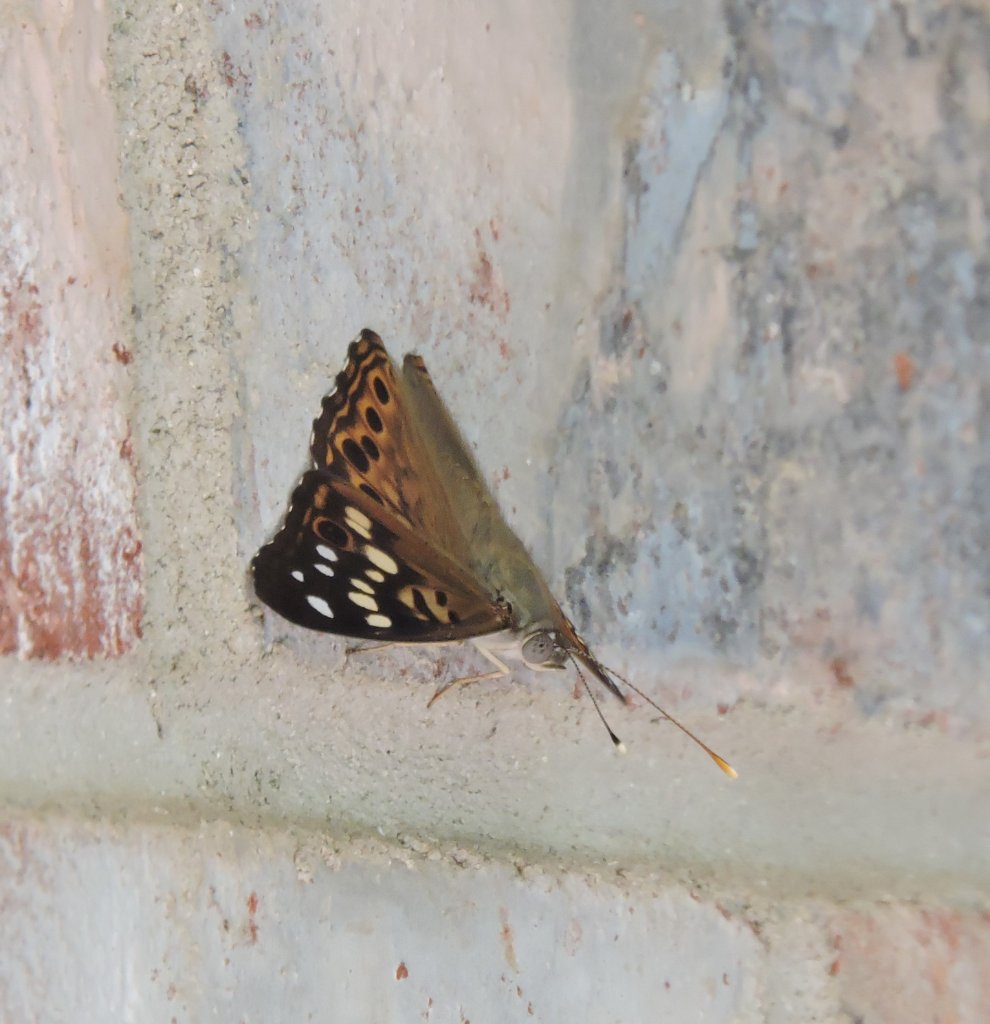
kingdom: Animalia
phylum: Arthropoda
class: Insecta
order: Lepidoptera
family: Nymphalidae
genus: Asterocampa
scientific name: Asterocampa celtis
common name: Hackberry Emperor
